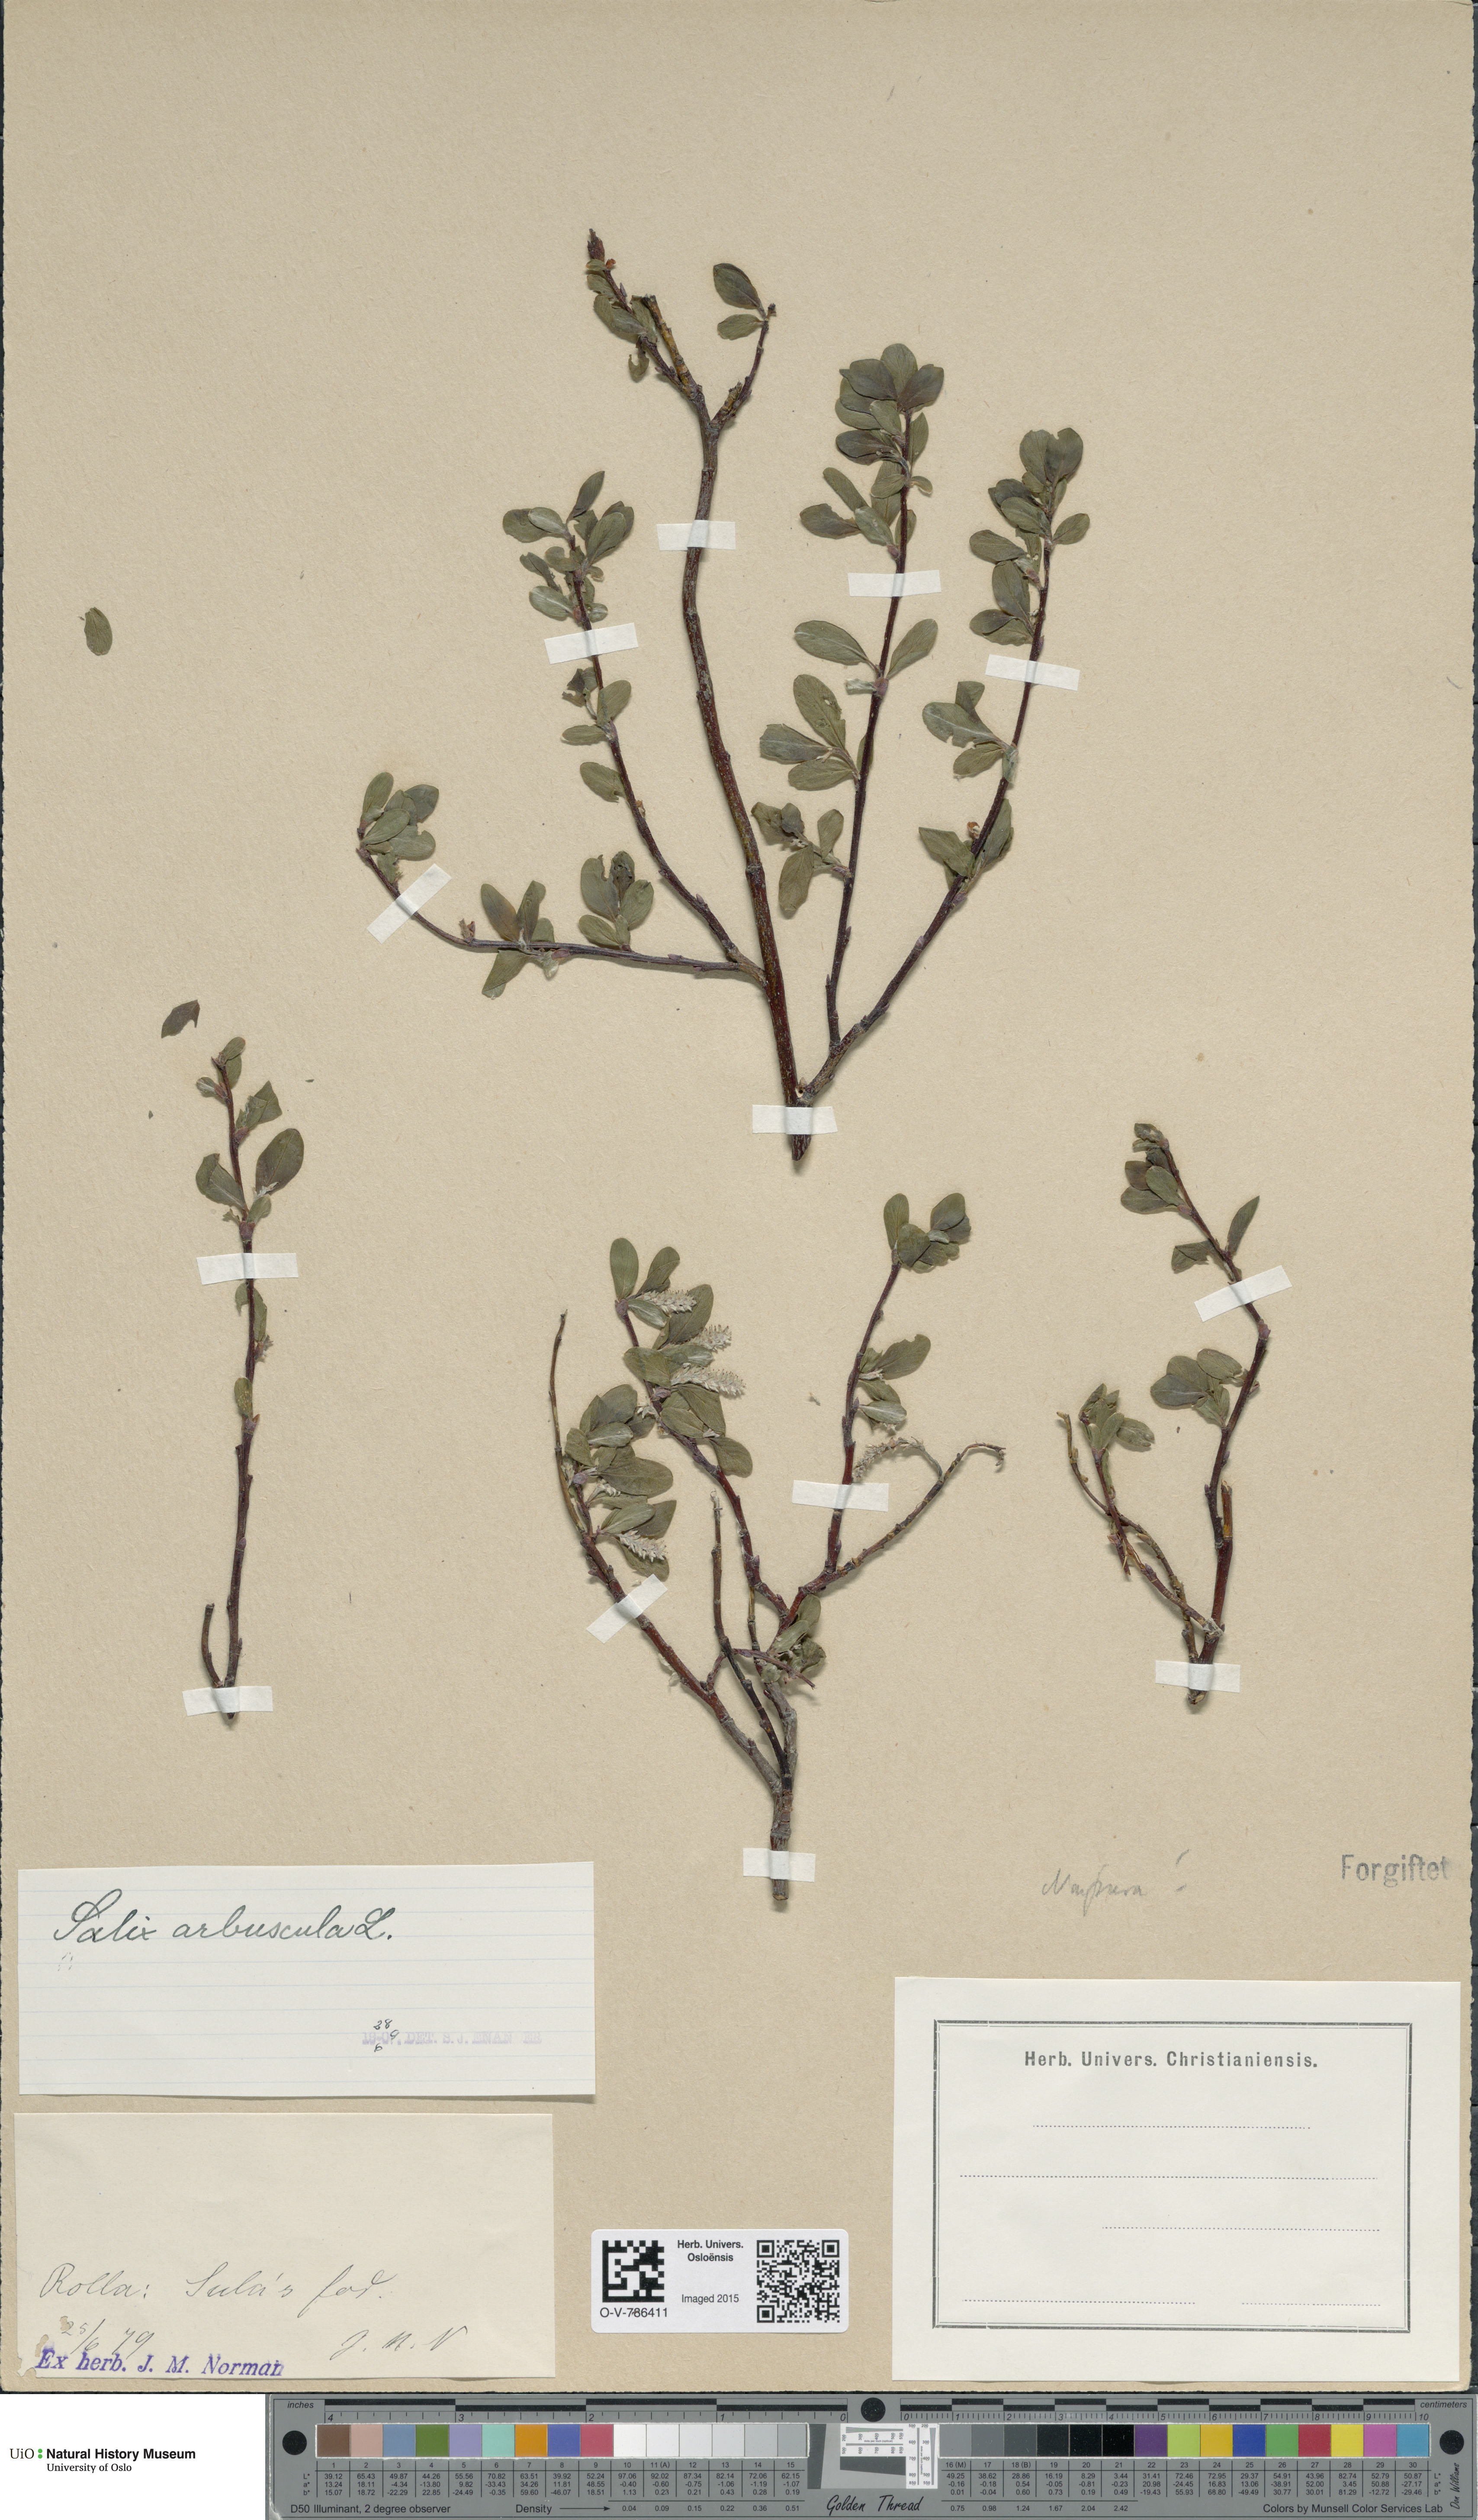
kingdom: Plantae
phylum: Tracheophyta
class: Magnoliopsida
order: Malpighiales
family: Salicaceae
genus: Salix
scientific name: Salix arbuscula
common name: Mountain willow
